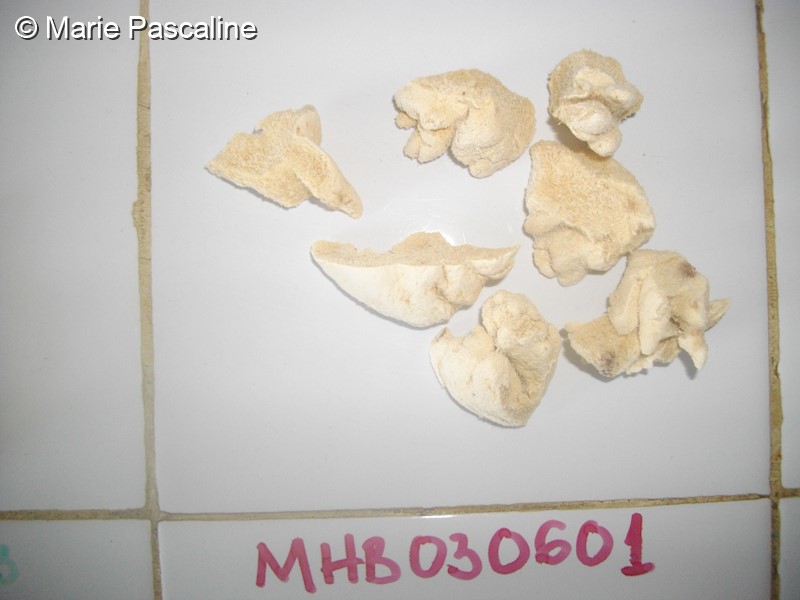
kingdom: Animalia
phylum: Cnidaria
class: Anthozoa
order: Malacalcyonacea
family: Sarcophytidae
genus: Sclerophytum
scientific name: Sclerophytum gravis
